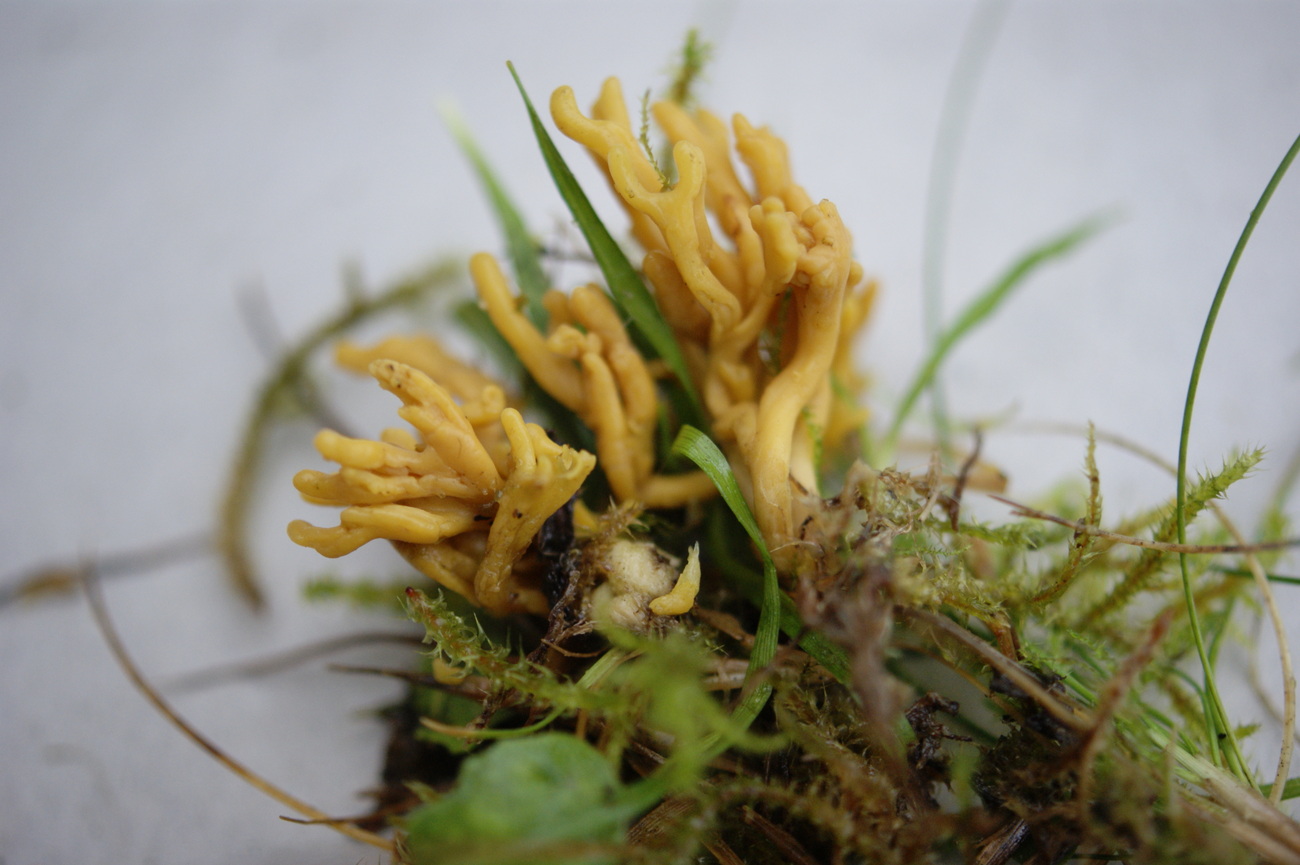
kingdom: Fungi
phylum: Basidiomycota
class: Agaricomycetes
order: Agaricales
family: Clavariaceae
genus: Clavulinopsis
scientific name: Clavulinopsis corniculata
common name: eng-køllesvamp
